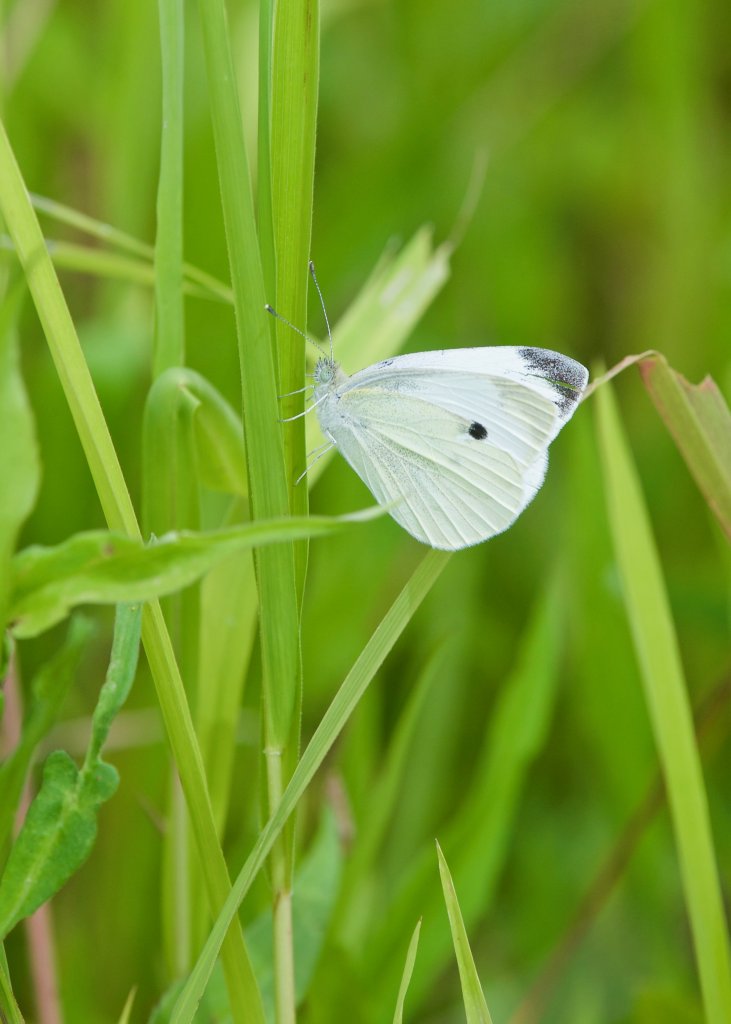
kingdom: Animalia
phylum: Arthropoda
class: Insecta
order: Lepidoptera
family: Pieridae
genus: Pieris
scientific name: Pieris rapae
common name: Cabbage White
